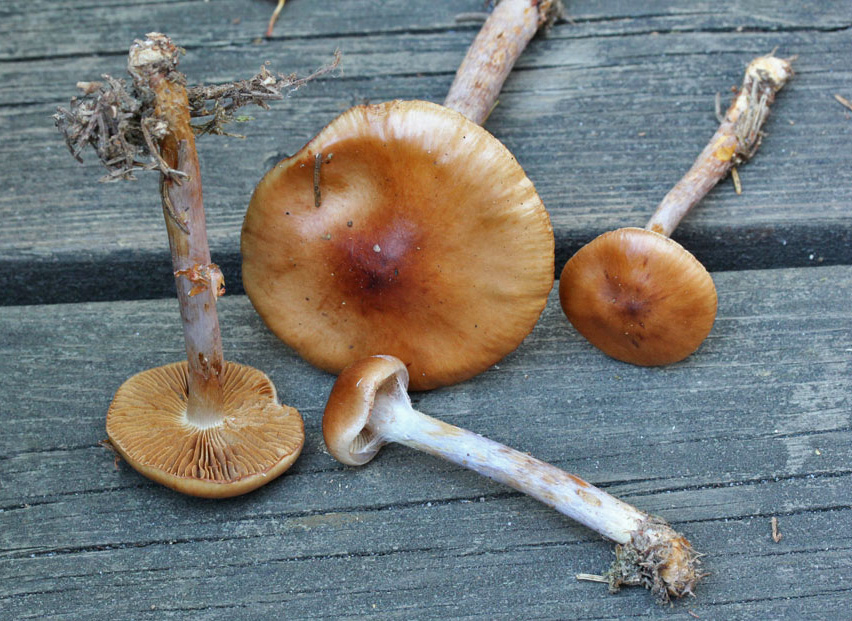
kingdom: Fungi
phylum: Basidiomycota
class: Agaricomycetes
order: Agaricales
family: Cortinariaceae
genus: Cortinarius
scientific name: Cortinarius collinitus
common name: spættet slørhat
